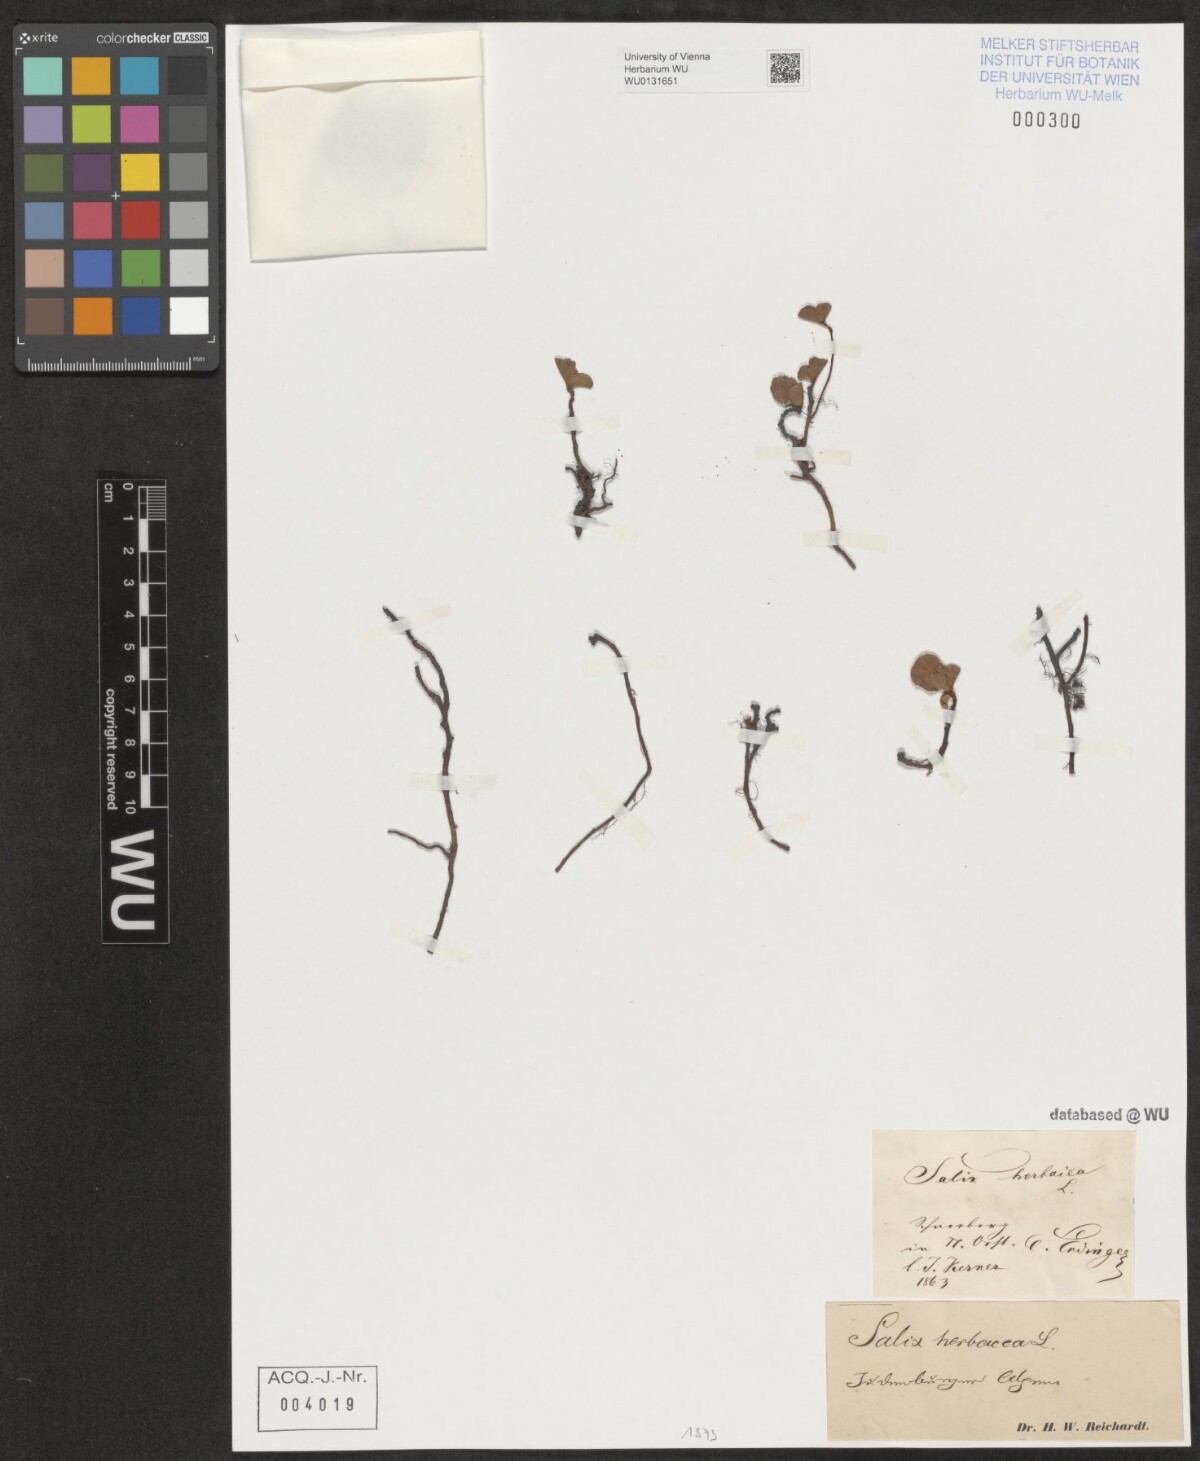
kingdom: Plantae
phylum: Tracheophyta
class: Magnoliopsida
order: Malpighiales
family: Salicaceae
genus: Salix
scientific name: Salix herbacea
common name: Dwarf willow
